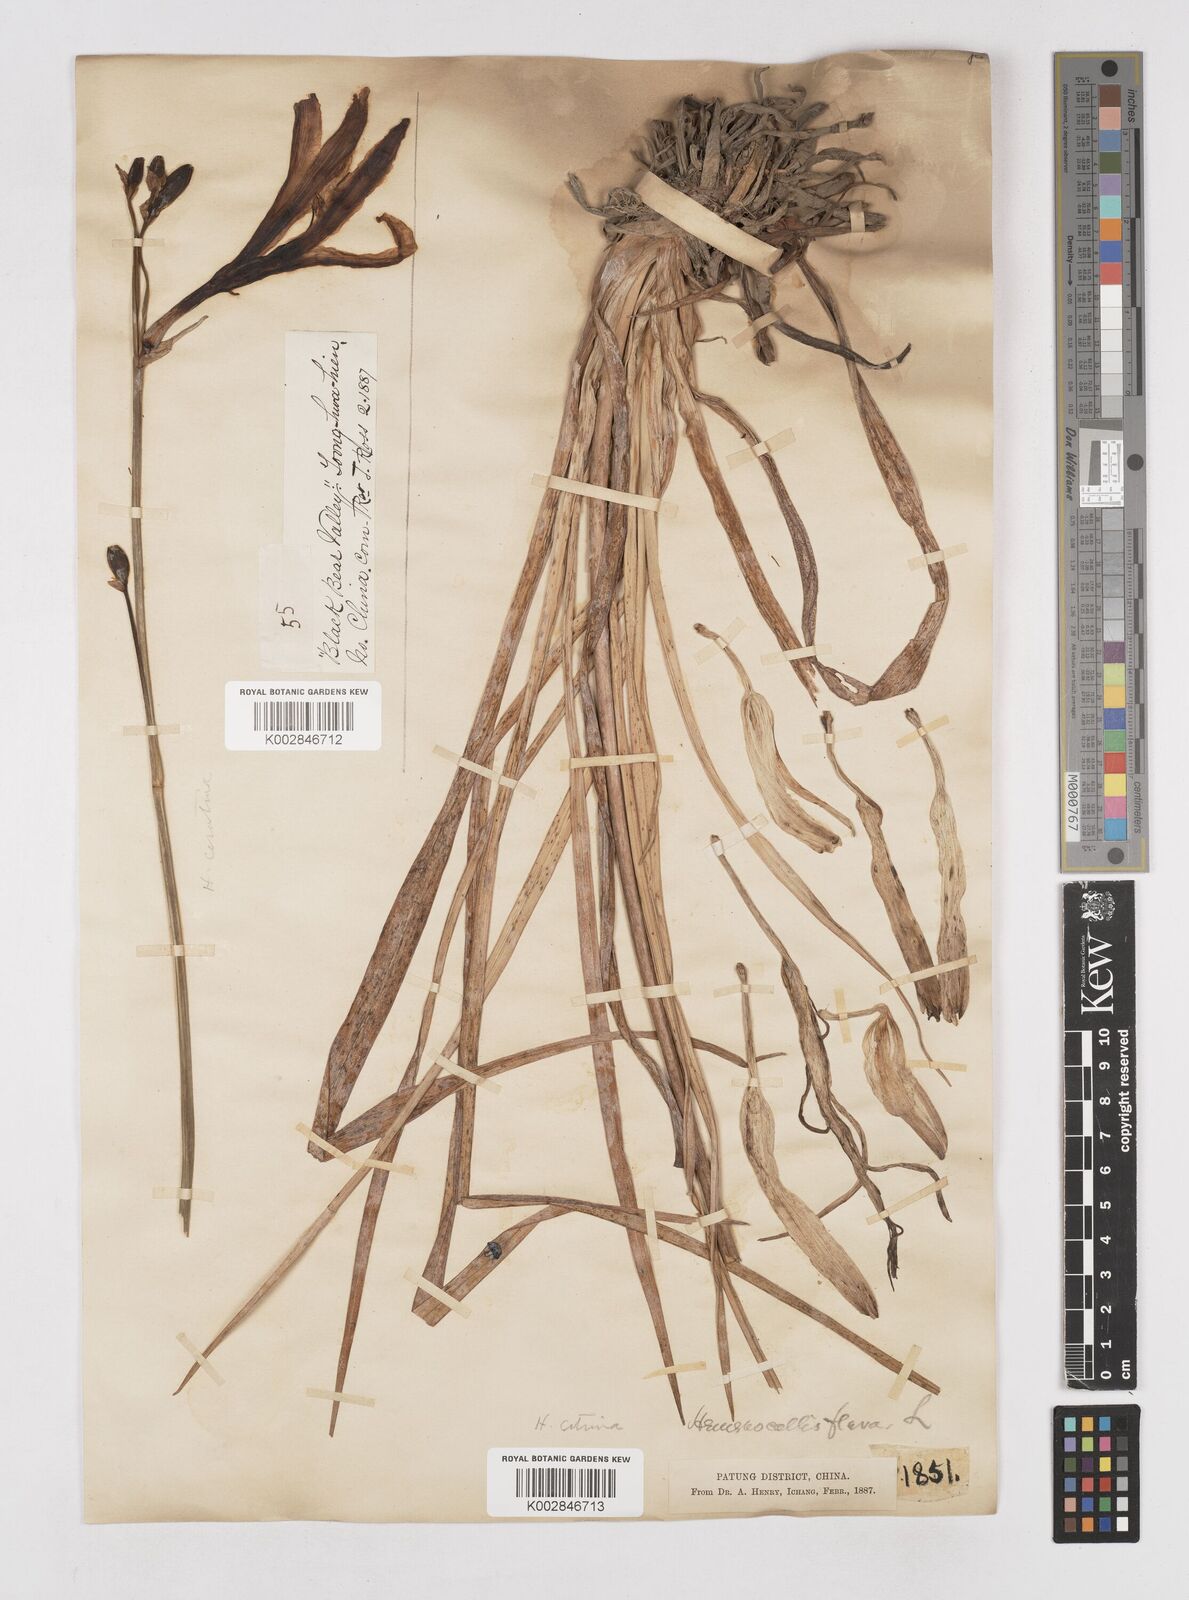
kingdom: Plantae
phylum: Tracheophyta
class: Liliopsida
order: Asparagales
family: Asphodelaceae
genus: Hemerocallis
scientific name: Hemerocallis
